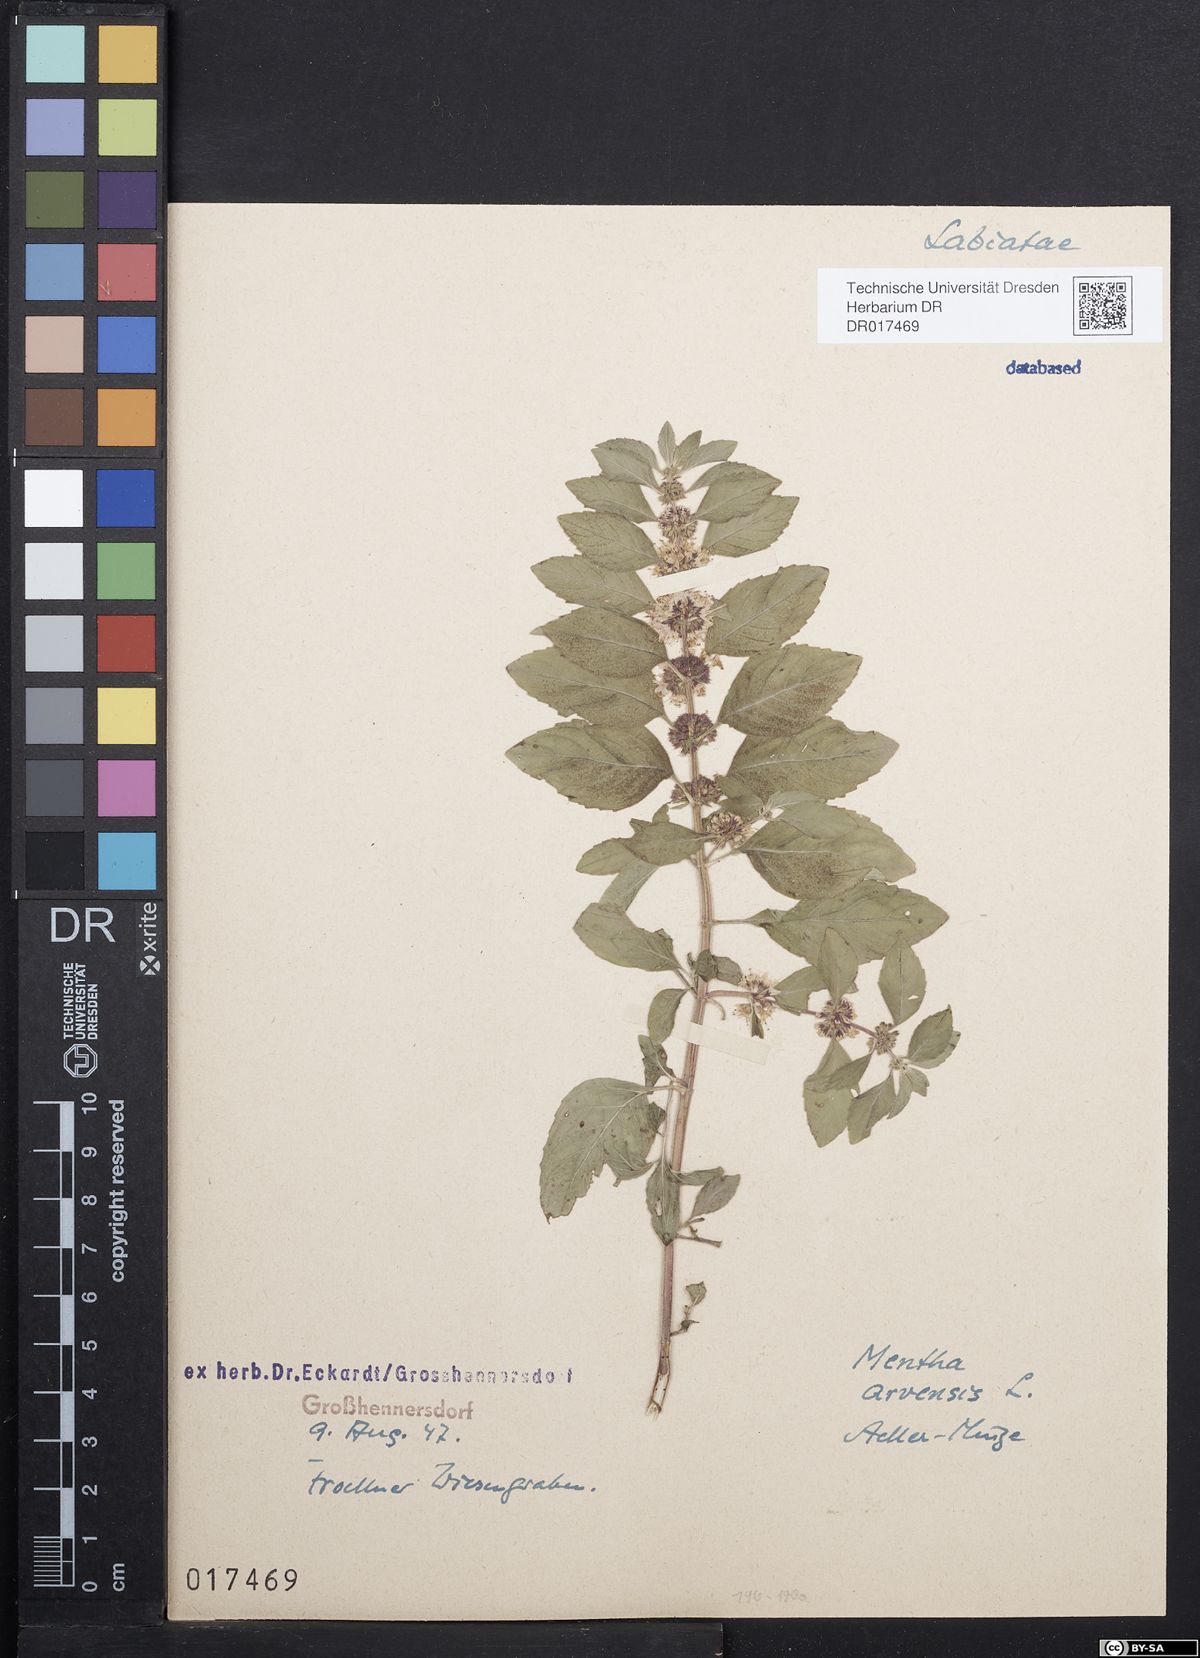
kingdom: Plantae
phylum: Tracheophyta
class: Magnoliopsida
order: Lamiales
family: Lamiaceae
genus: Mentha
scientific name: Mentha arvensis
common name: Corn mint
